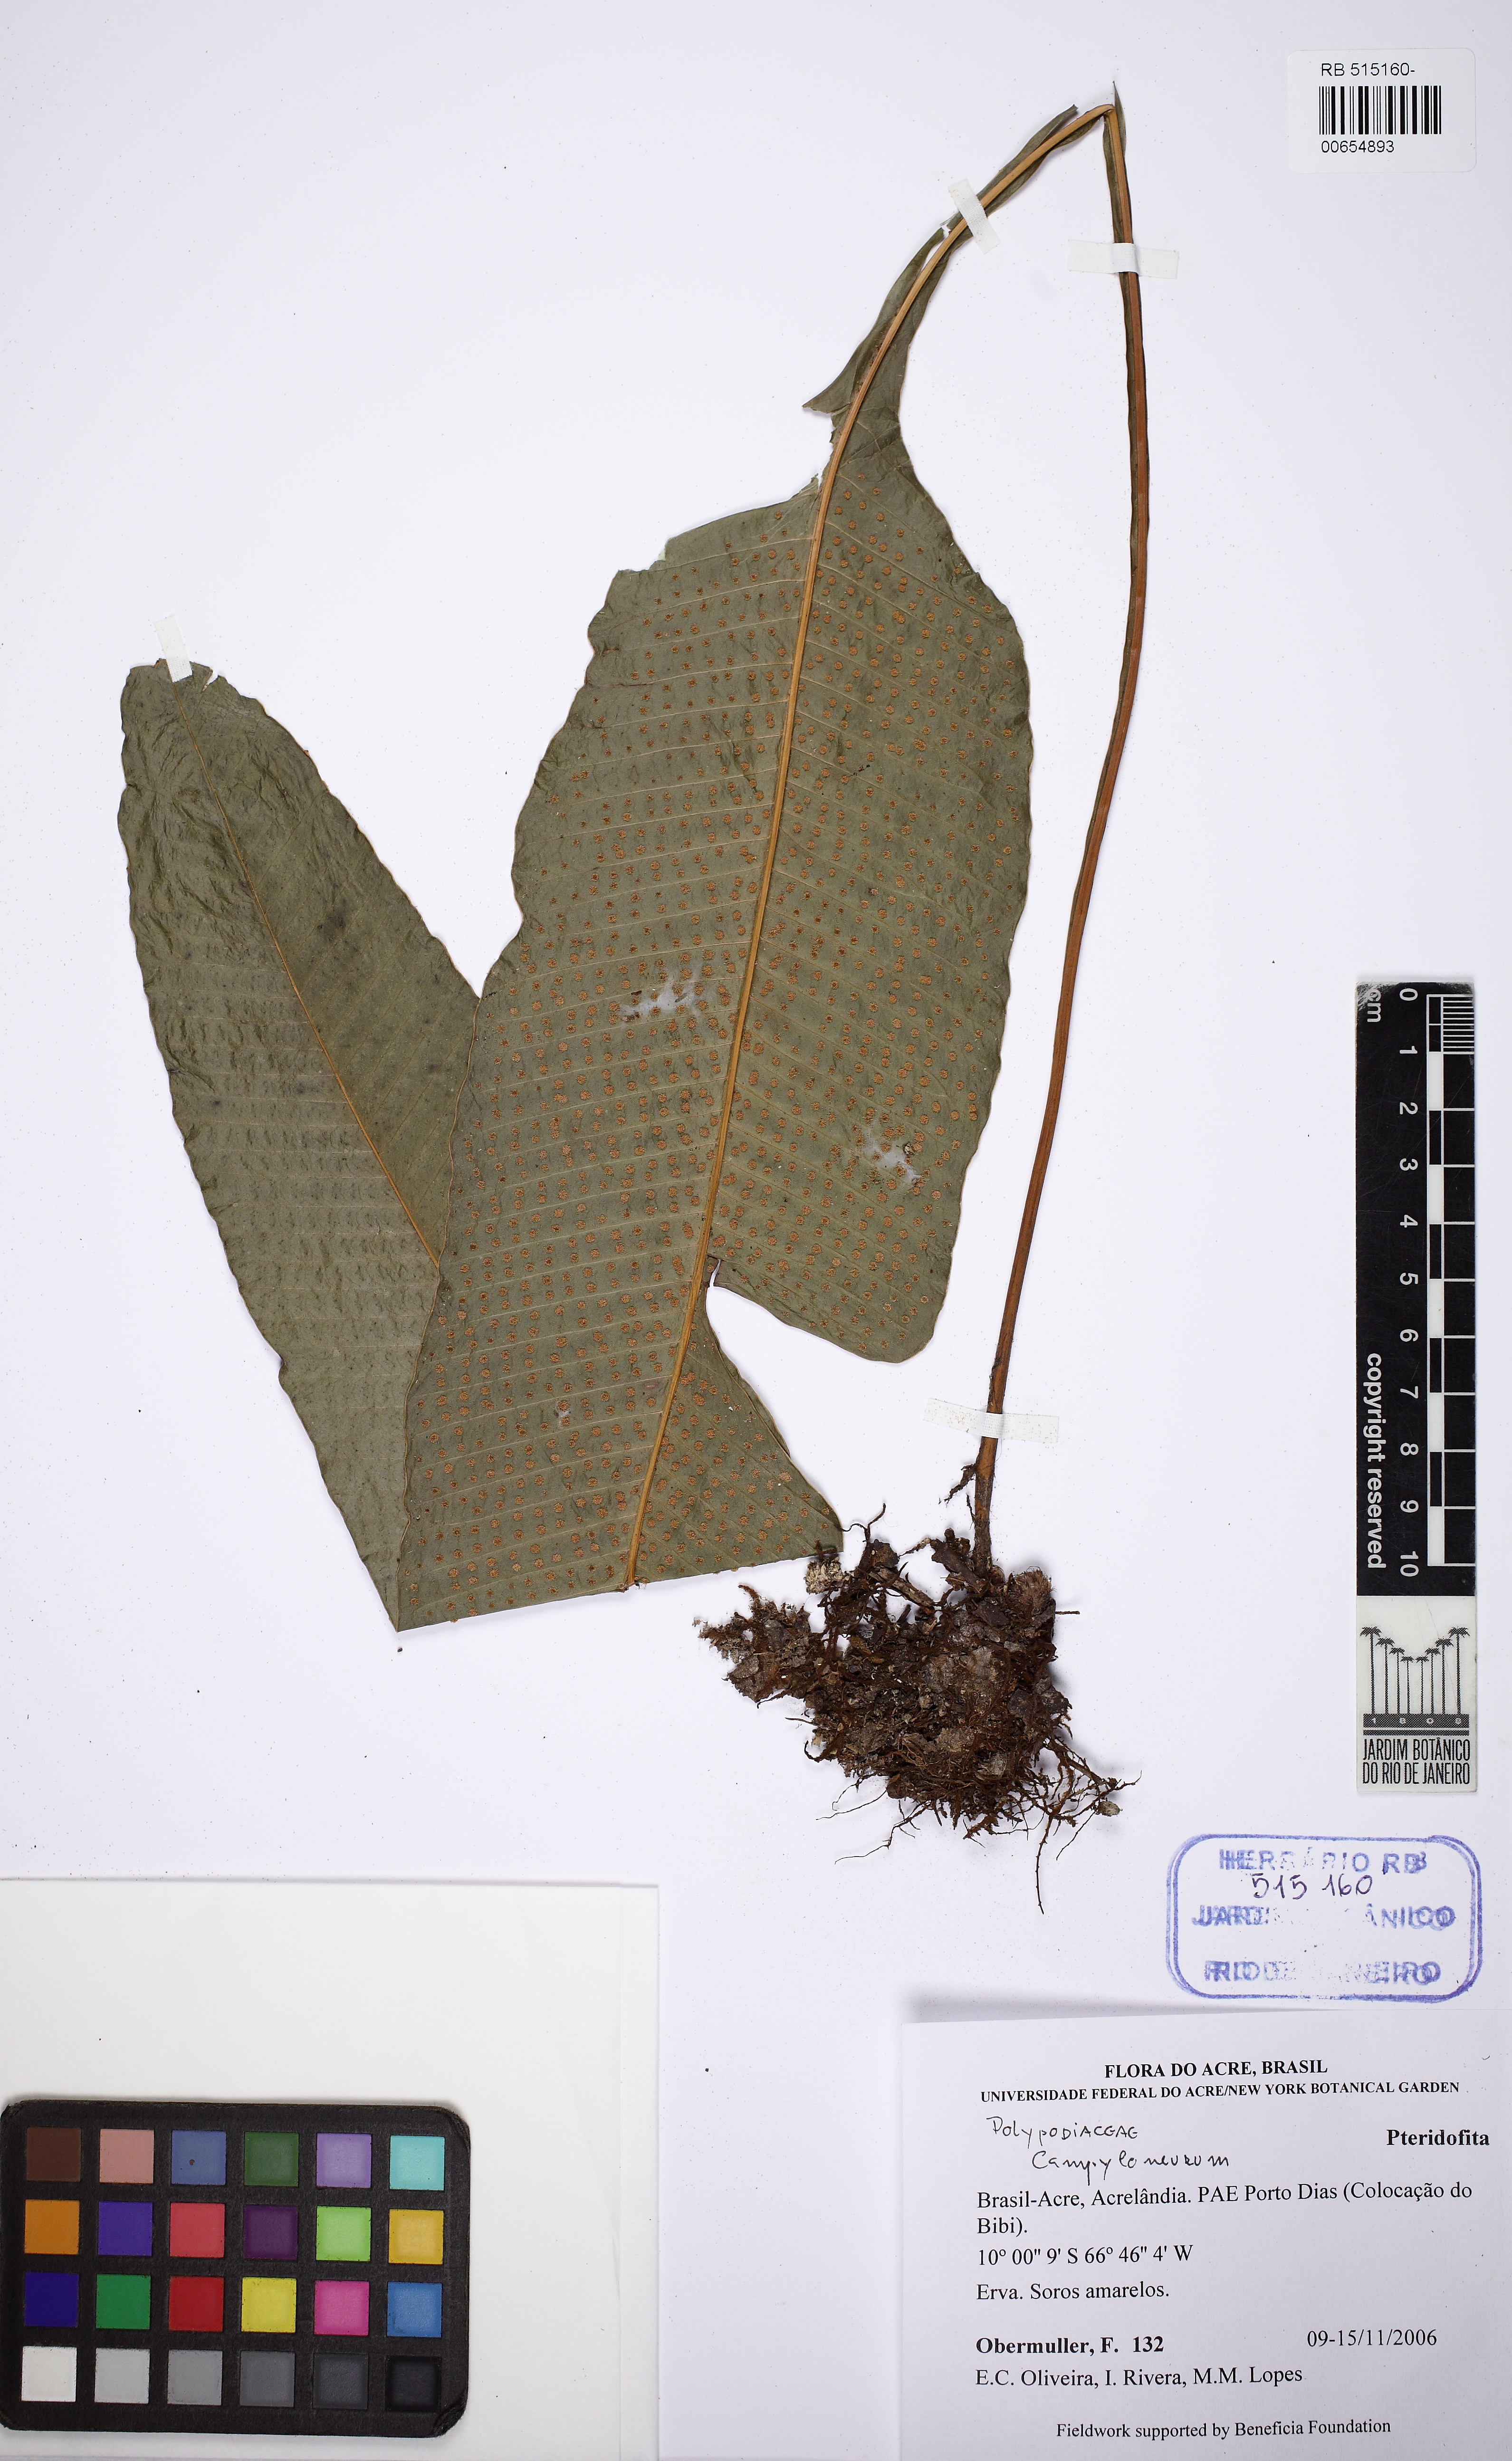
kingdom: Plantae
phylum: Tracheophyta
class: Polypodiopsida
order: Polypodiales
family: Polypodiaceae
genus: Campyloneurum
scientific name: Campyloneurum abruptum
